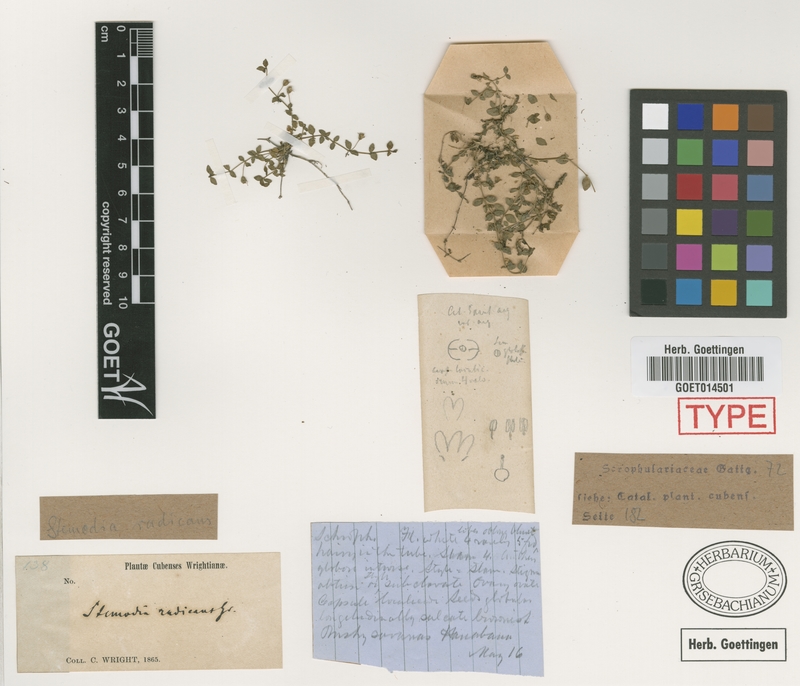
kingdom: Plantae
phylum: Tracheophyta
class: Magnoliopsida
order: Lamiales
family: Plantaginaceae
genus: Cheilophyllum
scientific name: Cheilophyllum radicans
